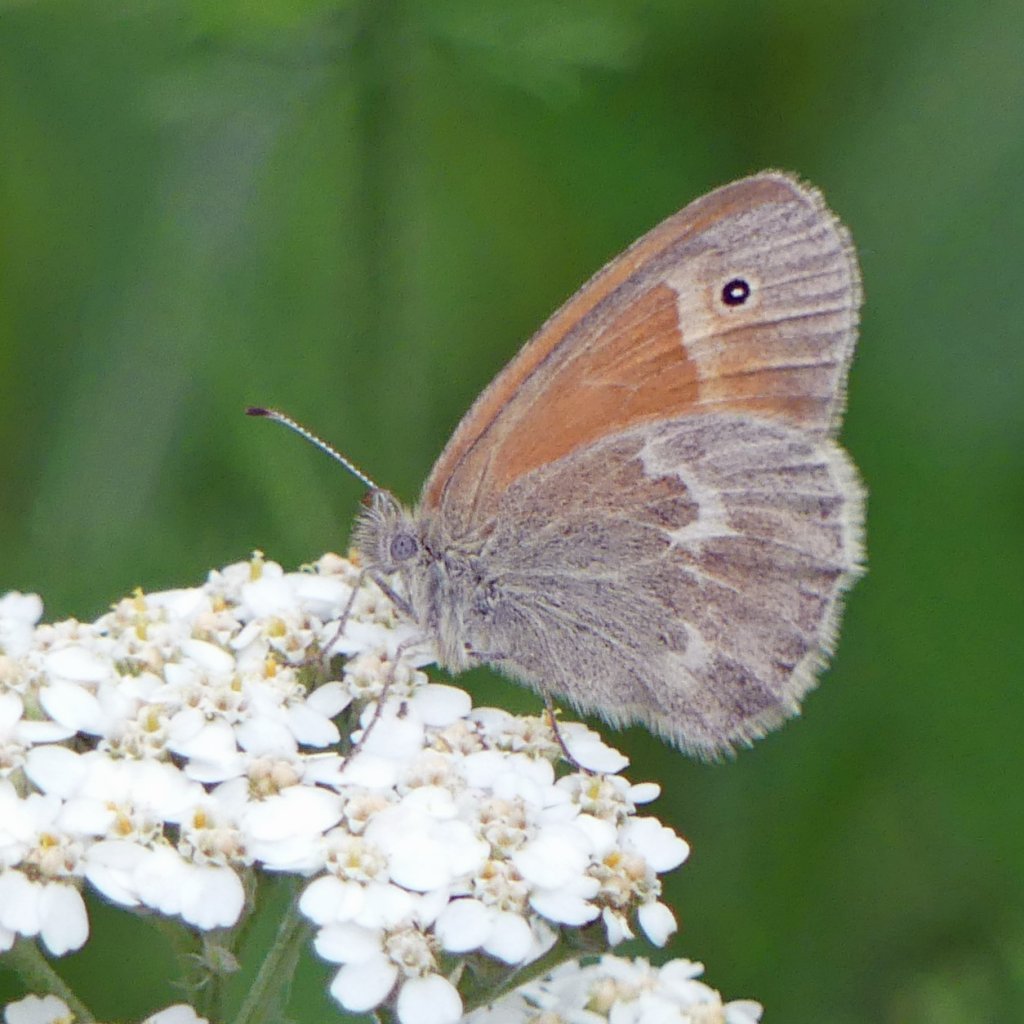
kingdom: Animalia
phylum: Arthropoda
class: Insecta
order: Lepidoptera
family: Nymphalidae
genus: Coenonympha
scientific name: Coenonympha tullia
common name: Large Heath
